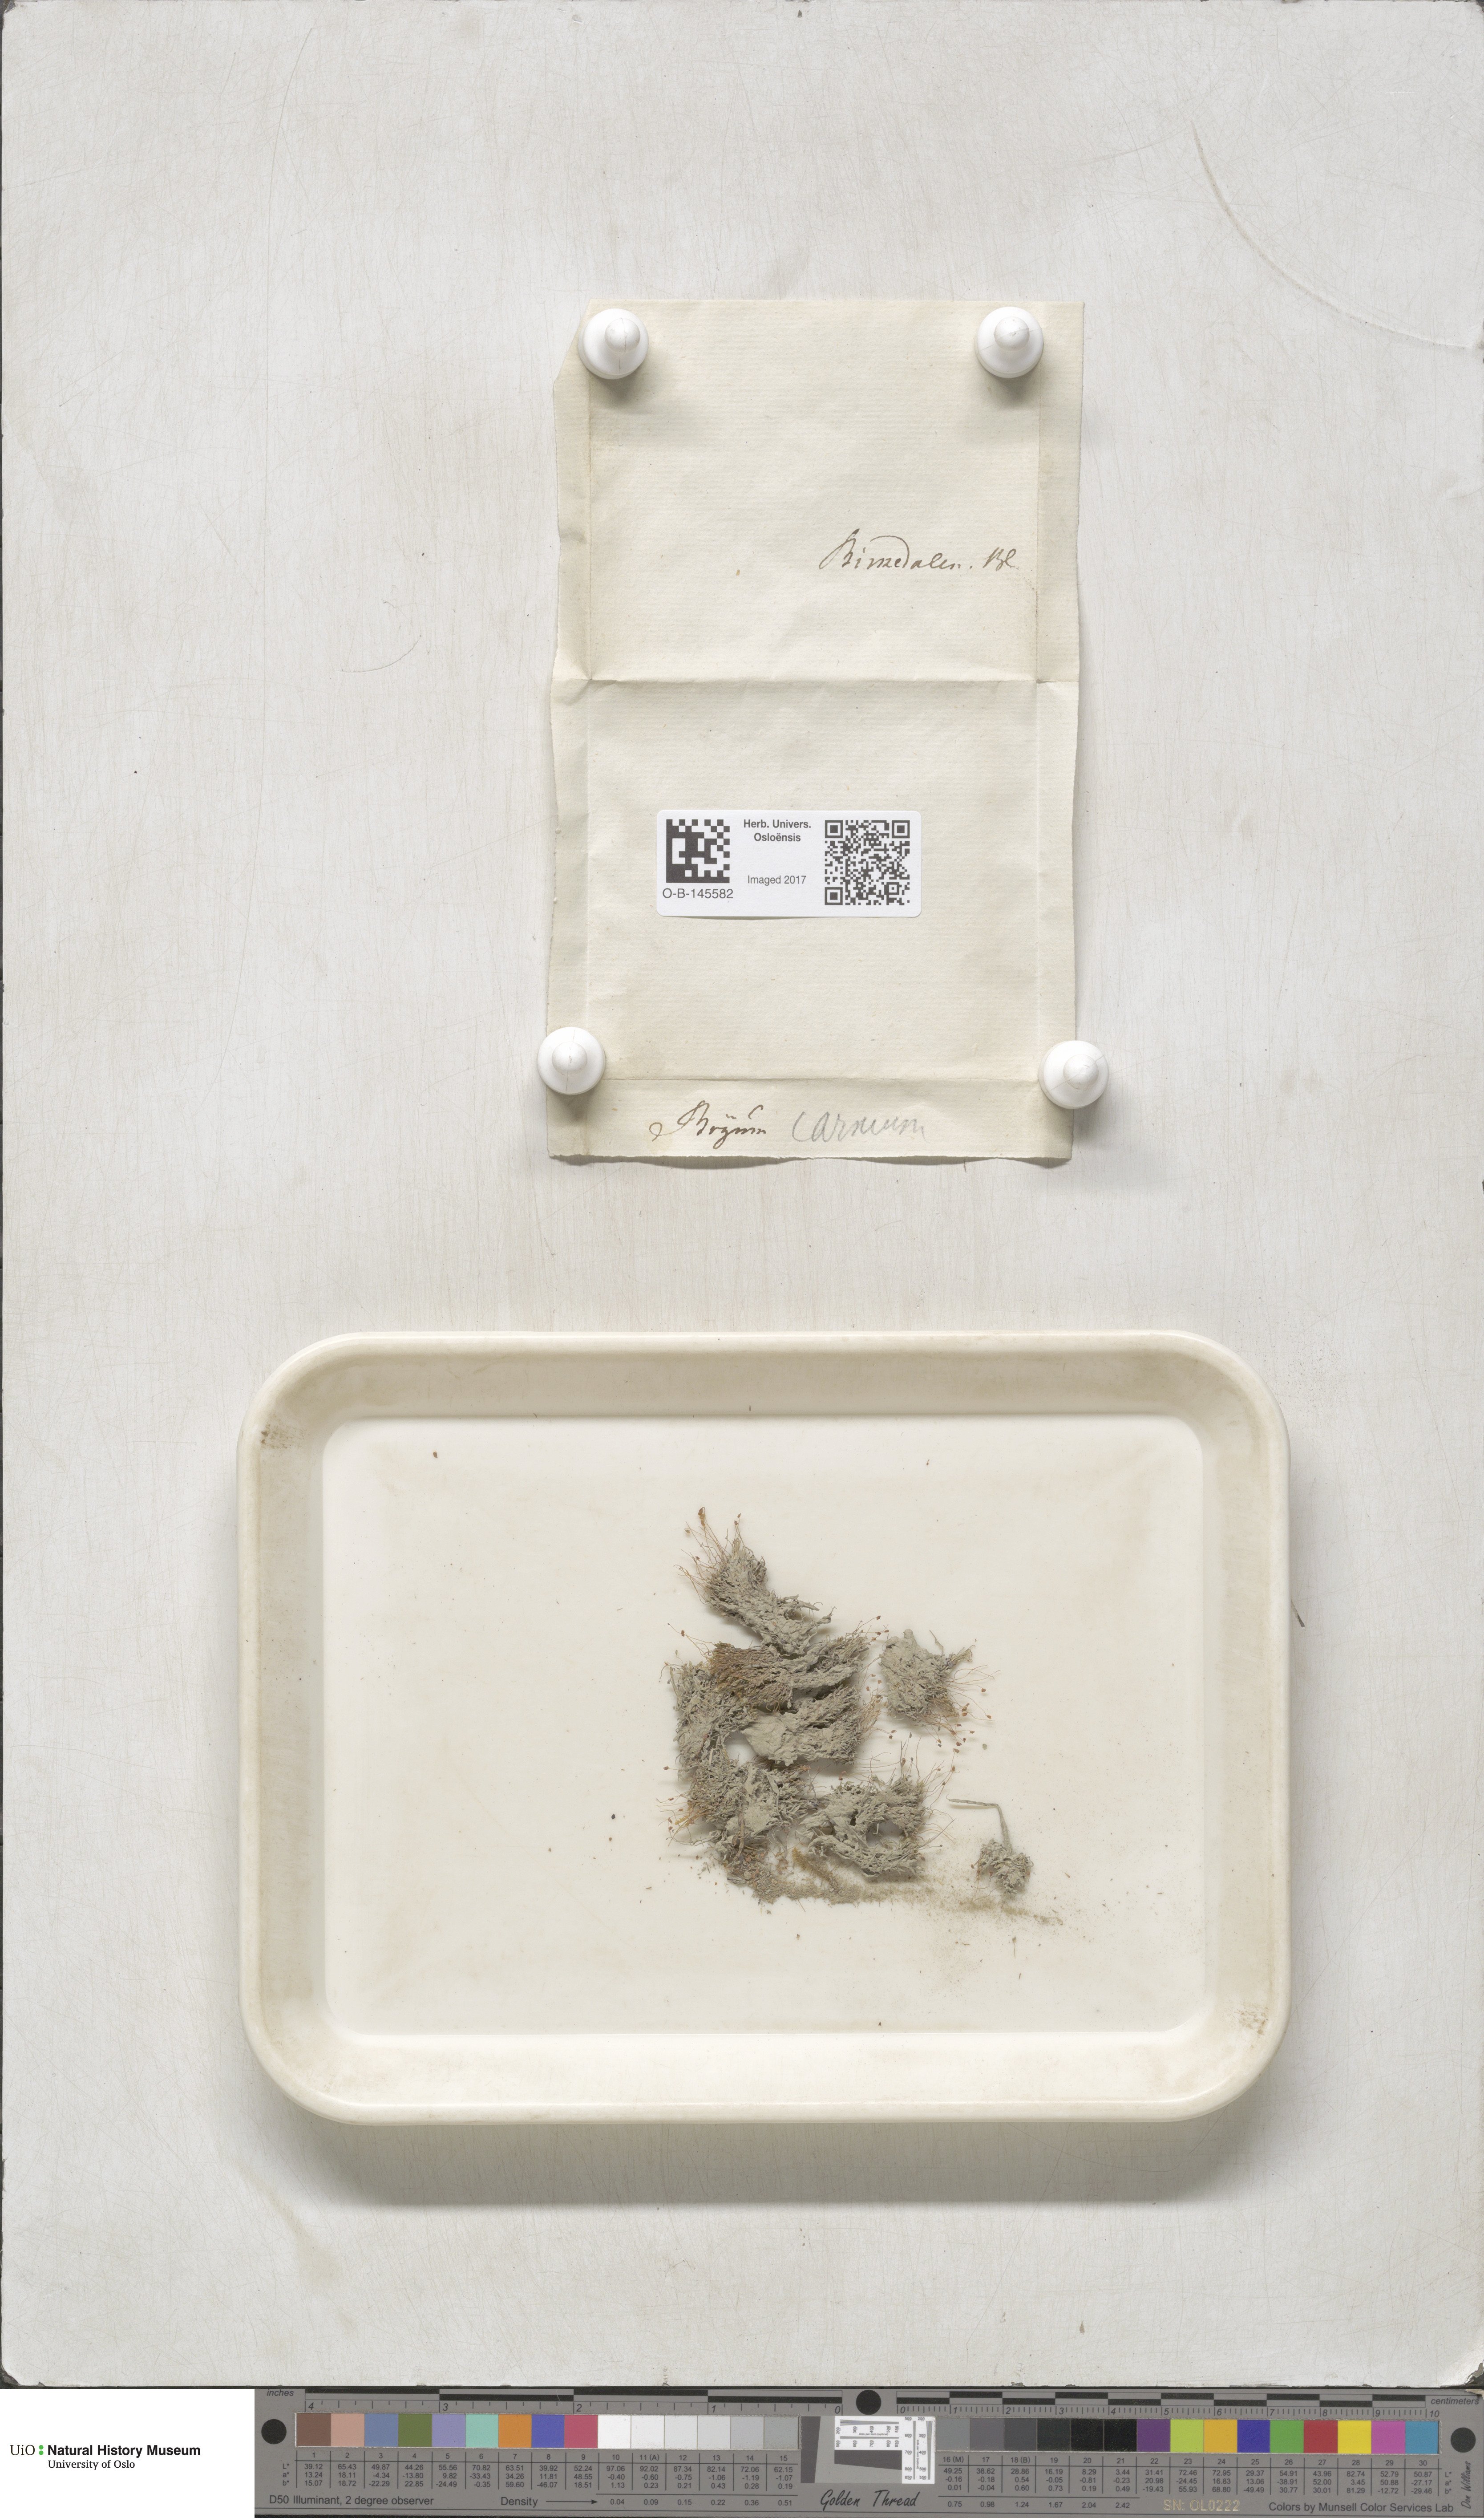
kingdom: Plantae
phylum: Bryophyta
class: Bryopsida
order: Bryales
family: Mniaceae
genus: Pohlia
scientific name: Pohlia melanodon
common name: Black-toothed nodding moss
